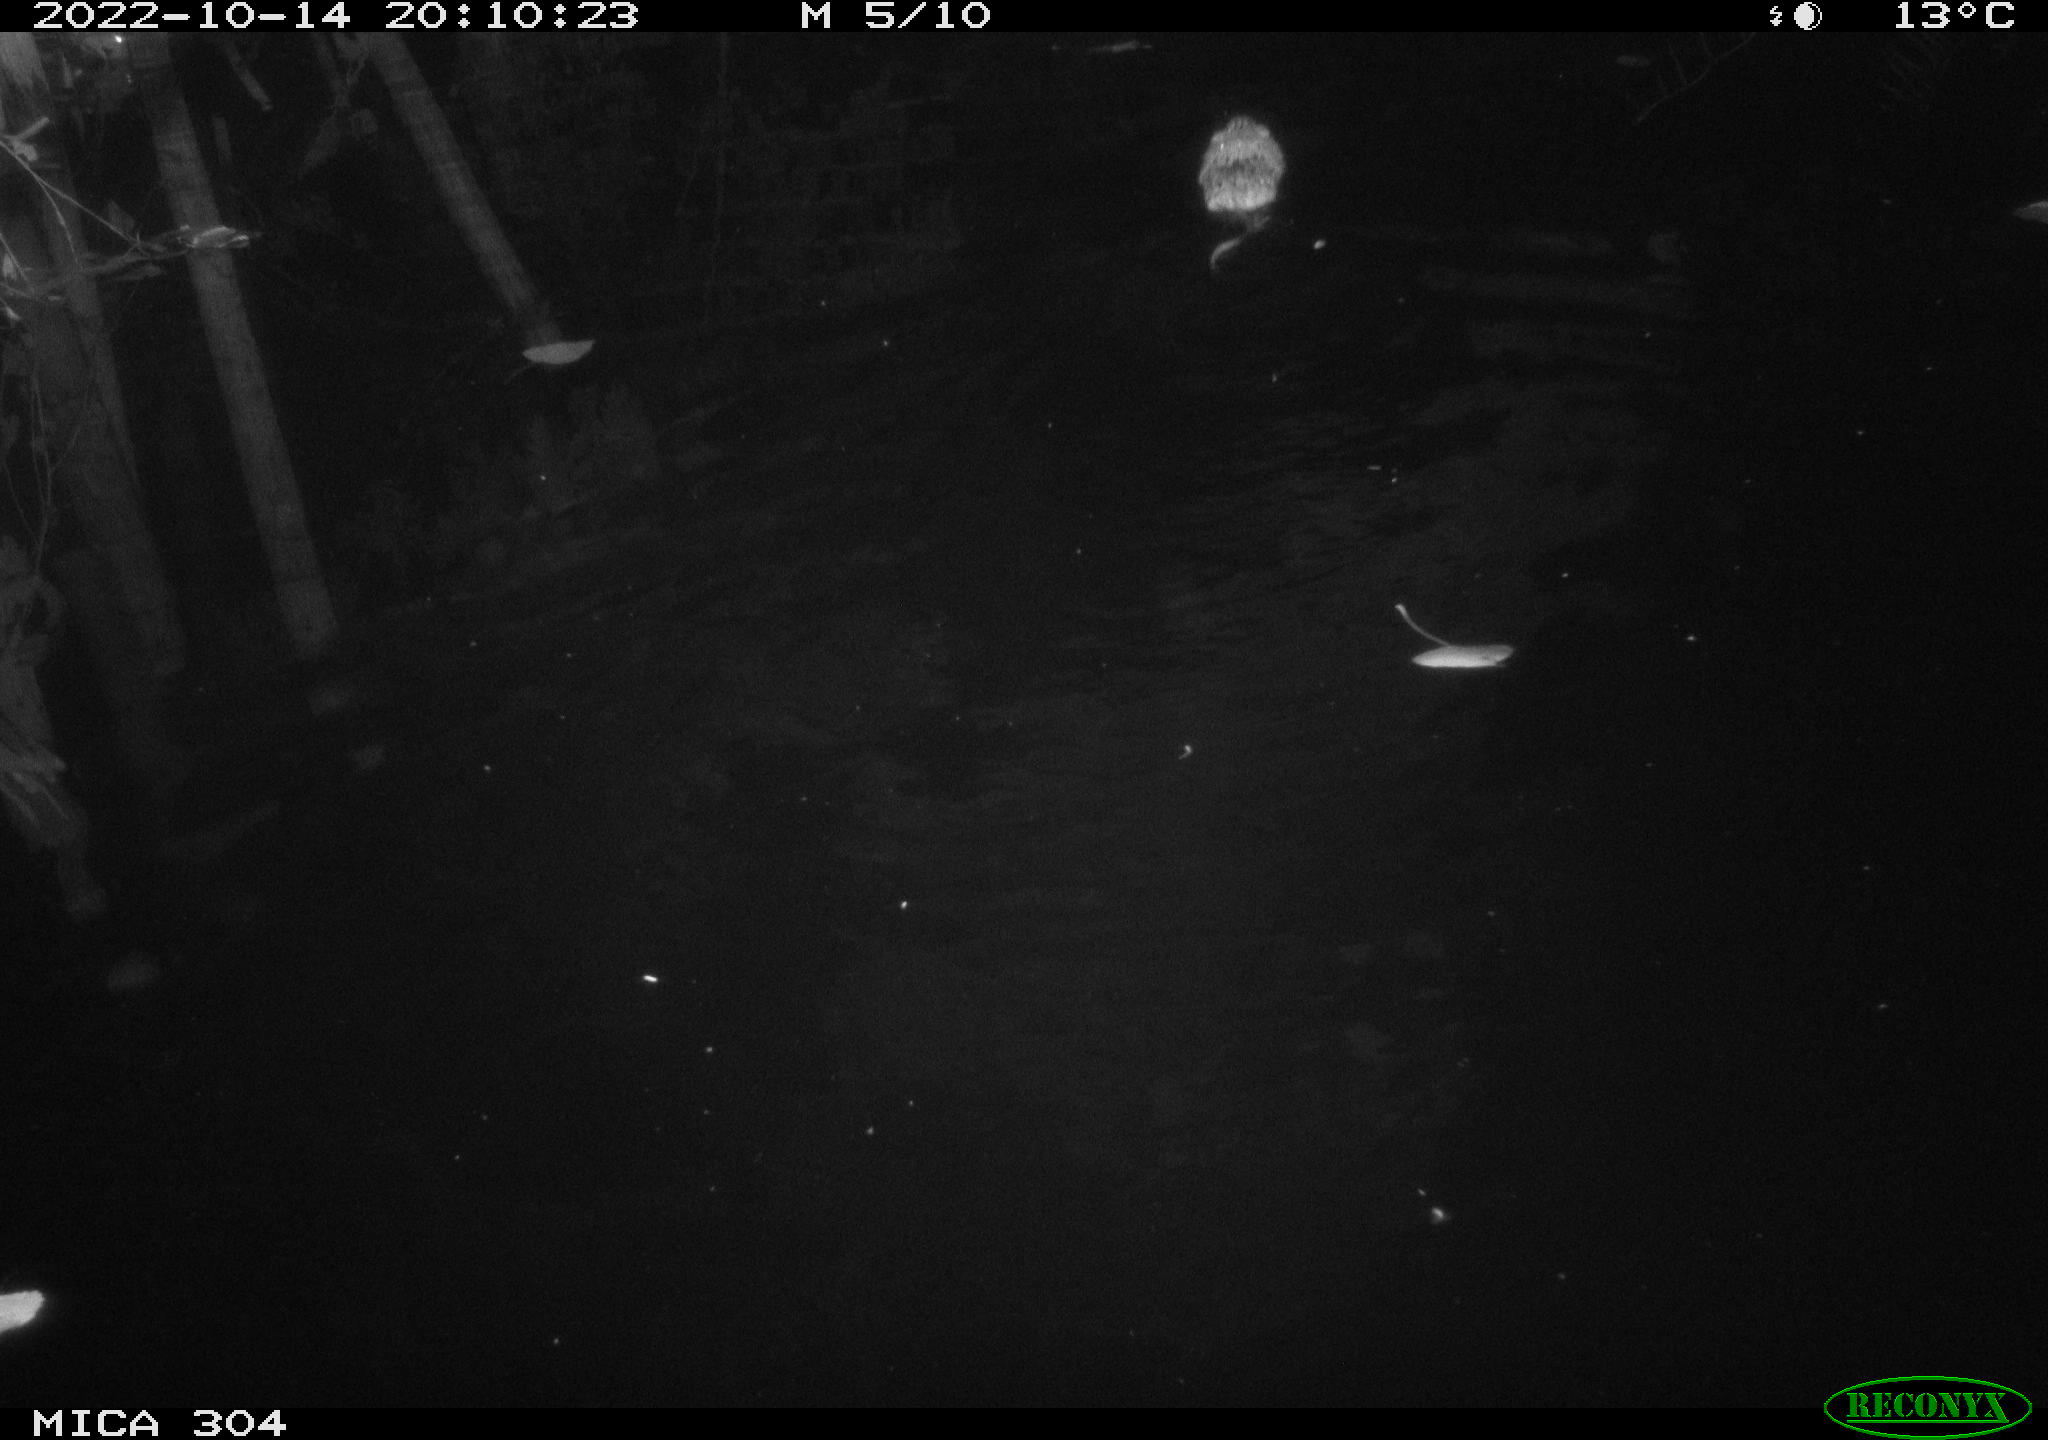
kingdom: Animalia
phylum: Chordata
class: Mammalia
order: Rodentia
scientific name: Rodentia
